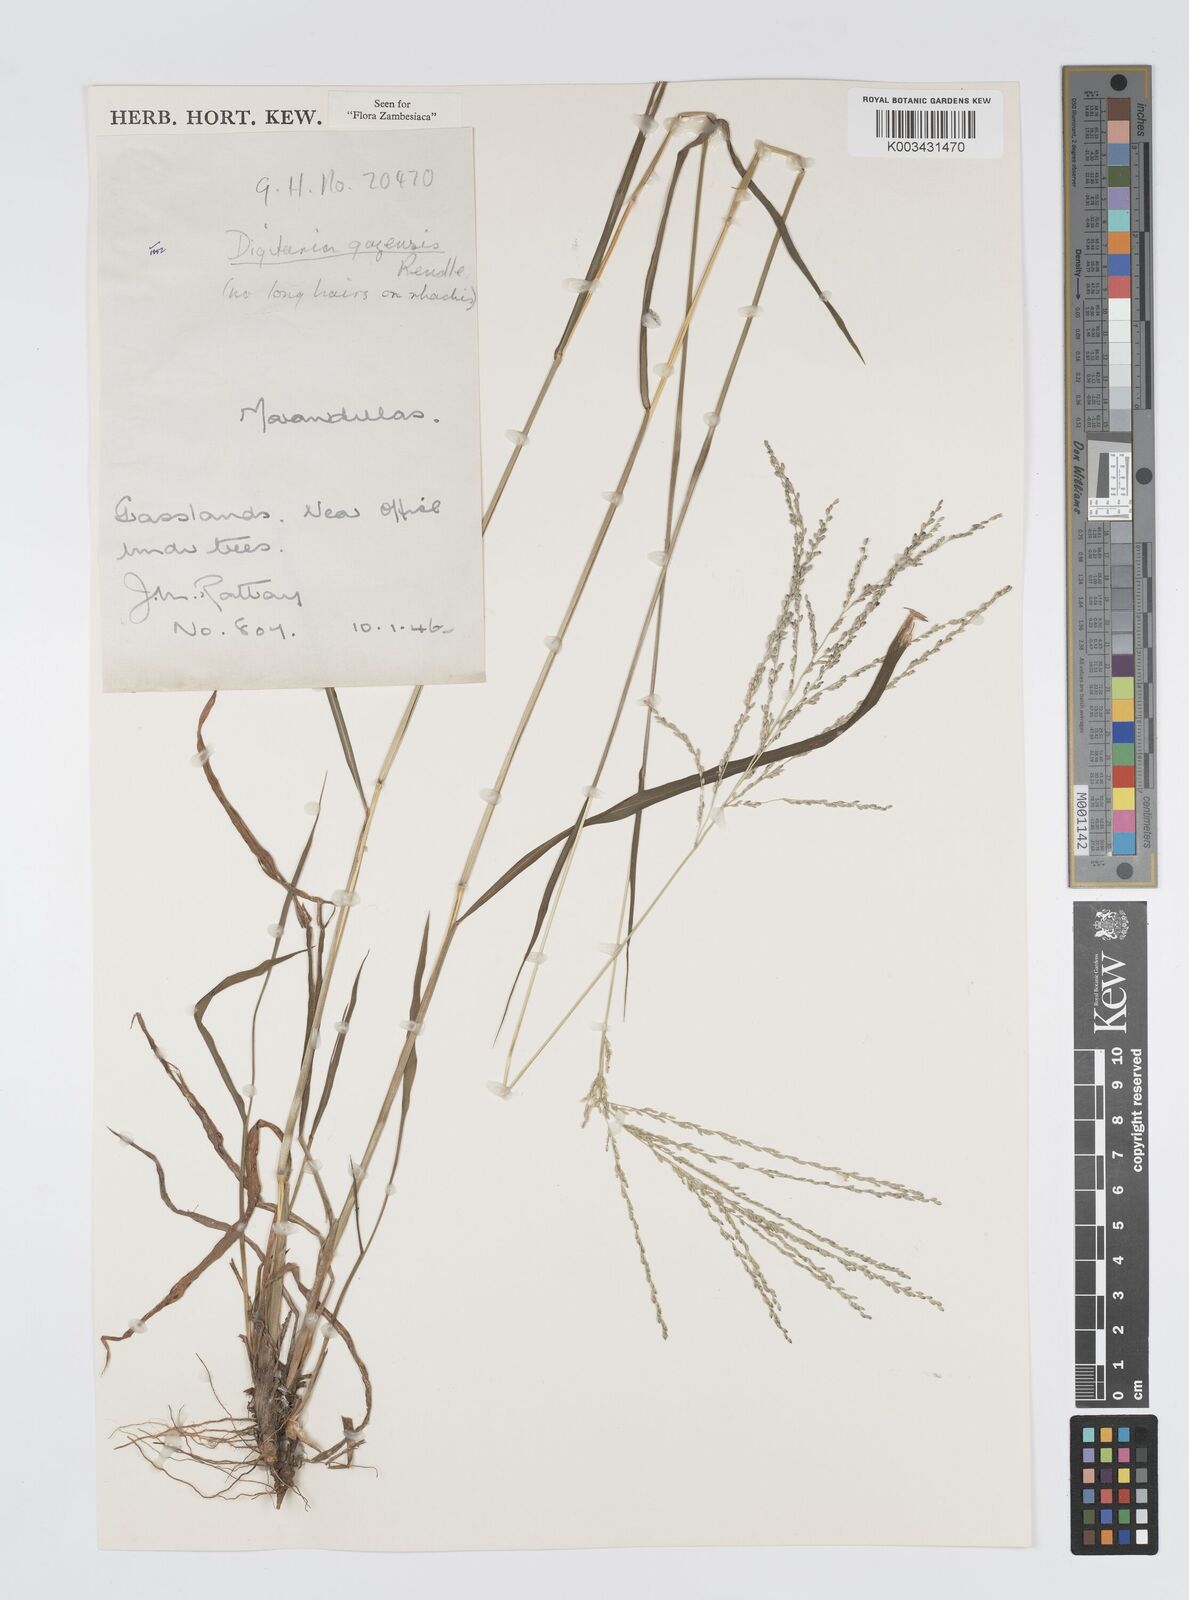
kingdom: Plantae
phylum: Tracheophyta
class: Liliopsida
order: Poales
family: Poaceae
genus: Digitaria
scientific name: Digitaria gazensis
